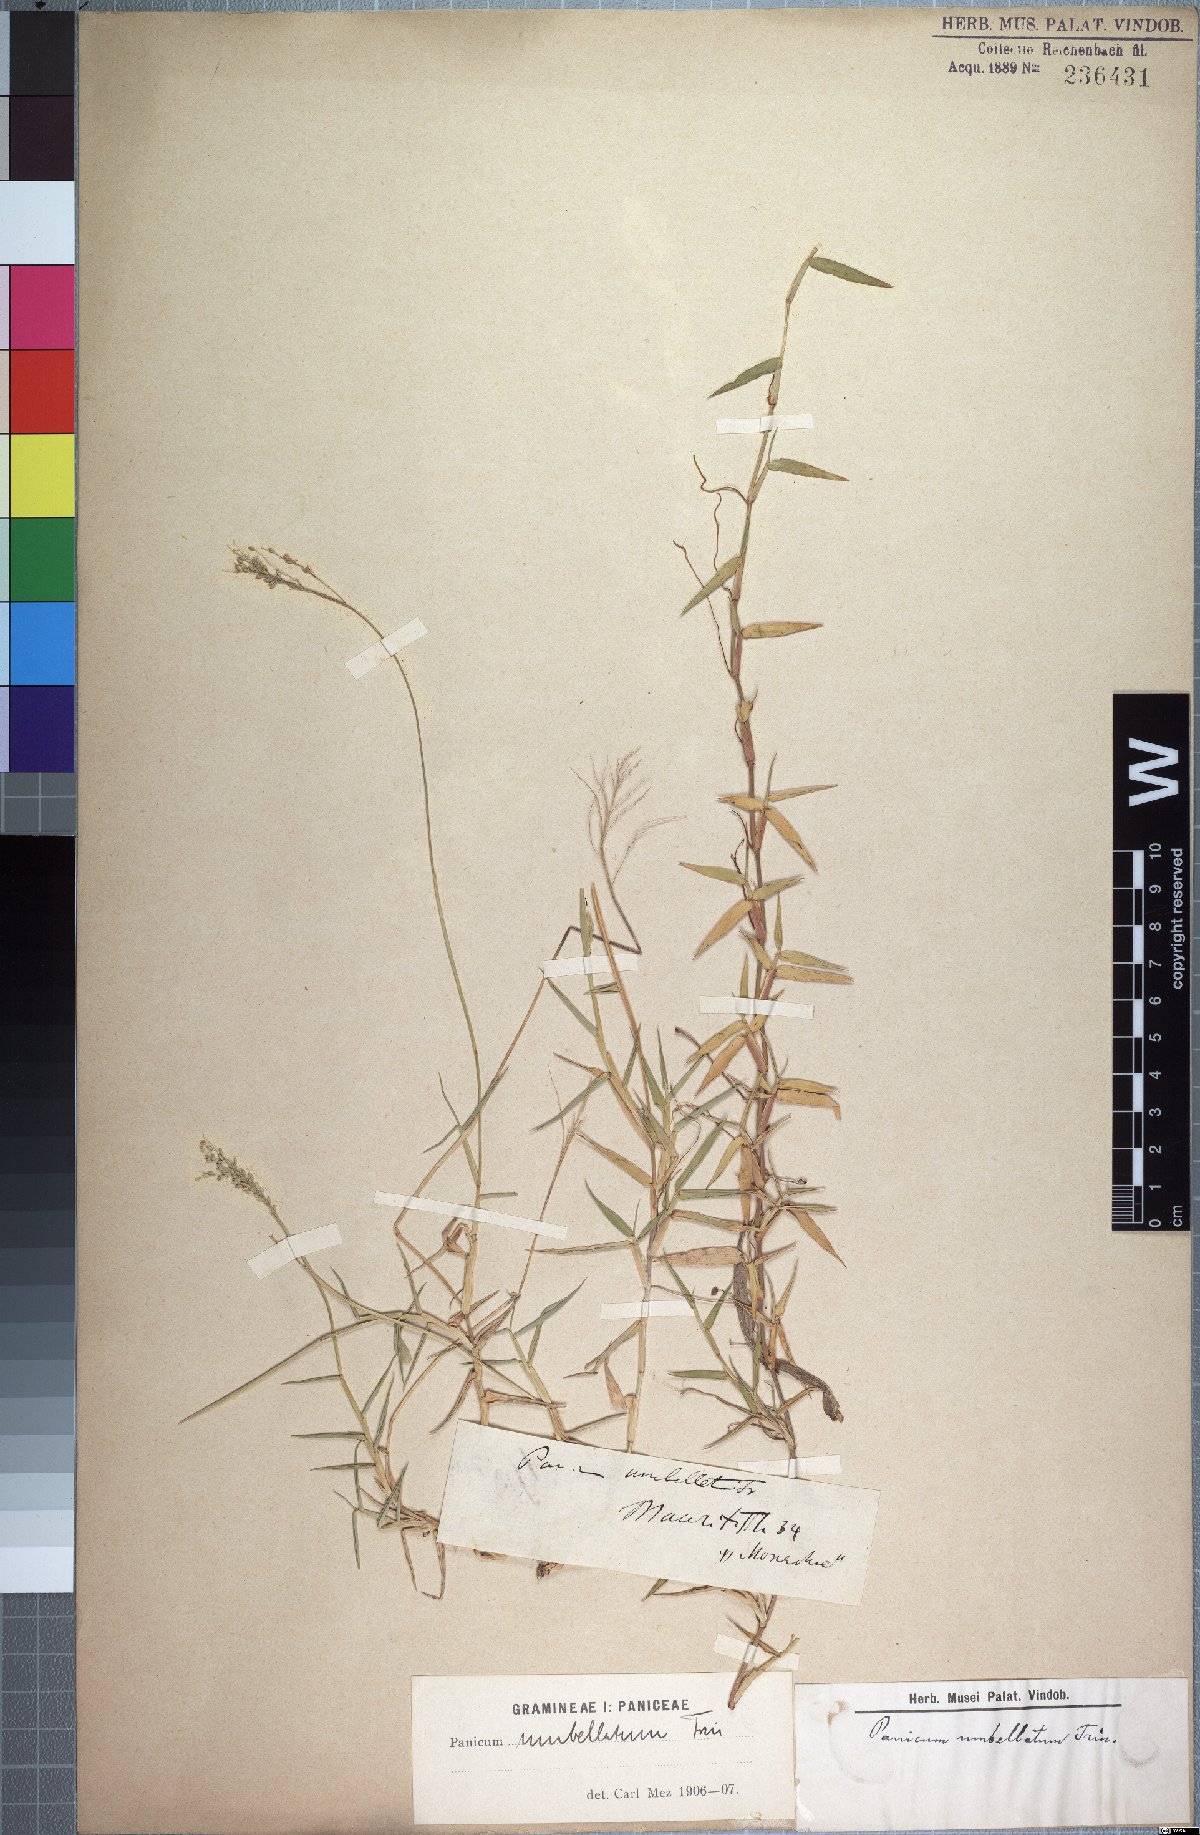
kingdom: Plantae
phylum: Tracheophyta
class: Liliopsida
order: Poales
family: Poaceae
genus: Urochloa
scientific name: Urochloa Brachiaria umbellata
